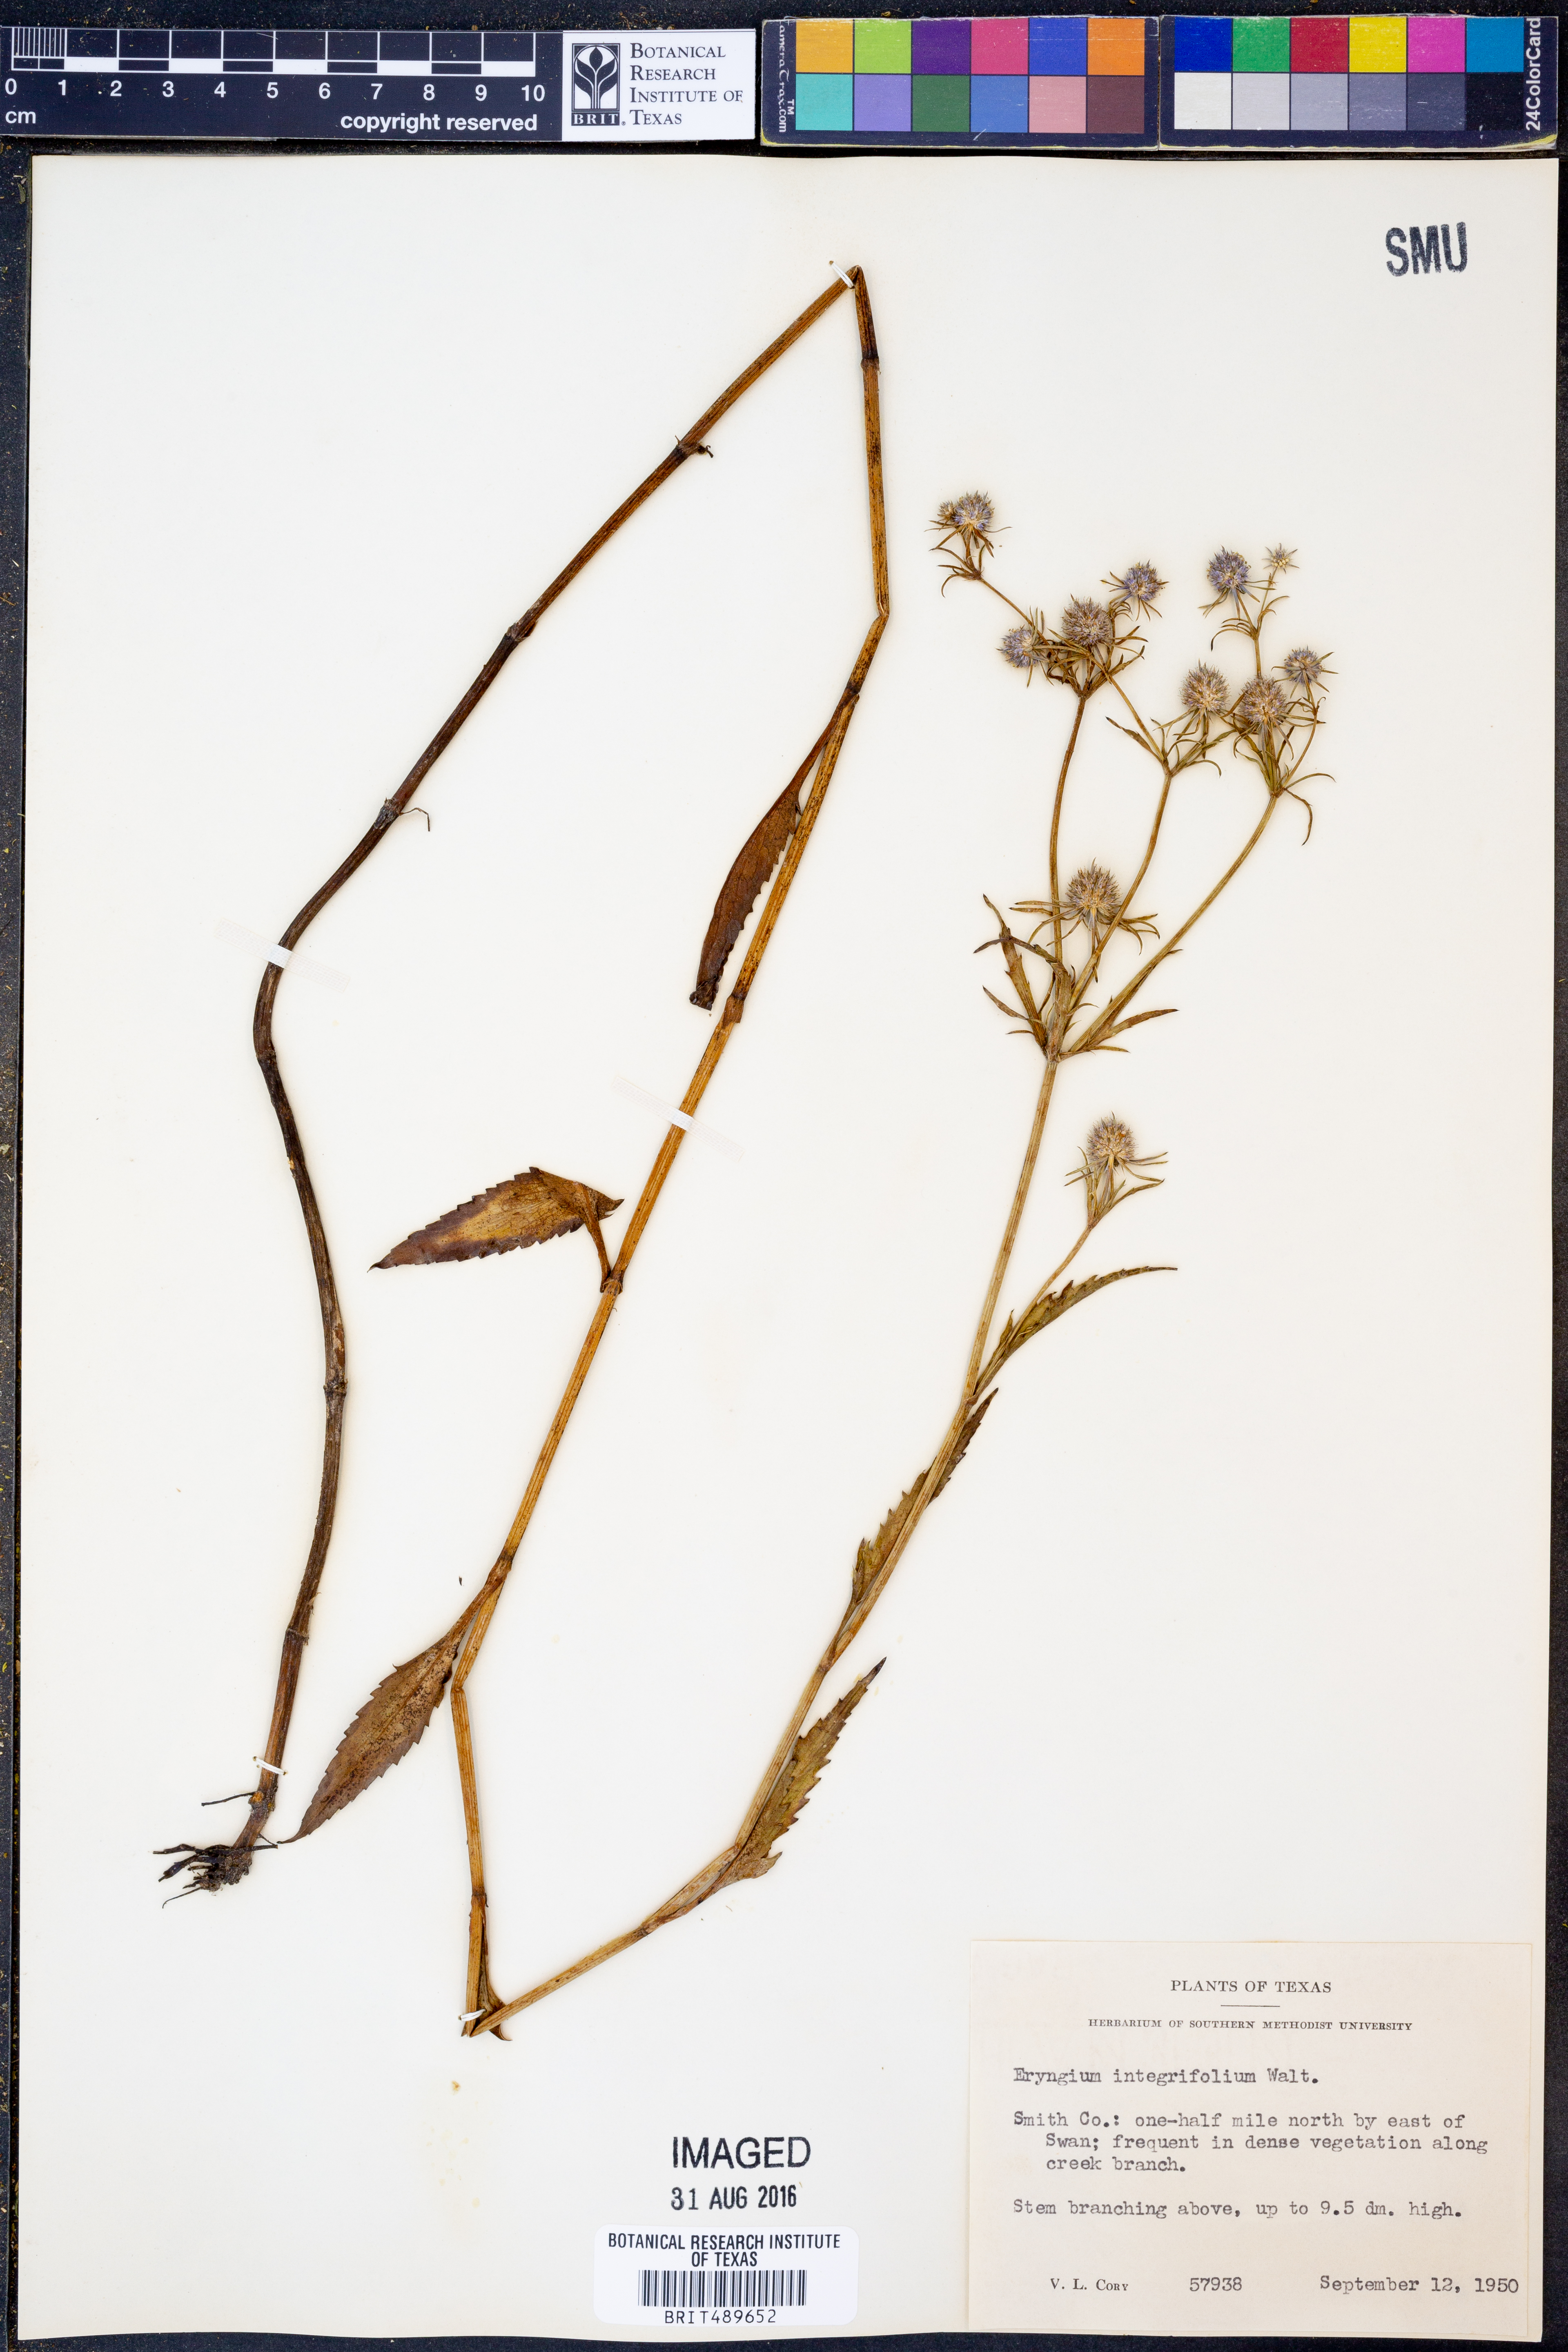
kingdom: Plantae
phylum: Tracheophyta
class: Magnoliopsida
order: Apiales
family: Apiaceae
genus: Eryngium
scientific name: Eryngium integrifolium
